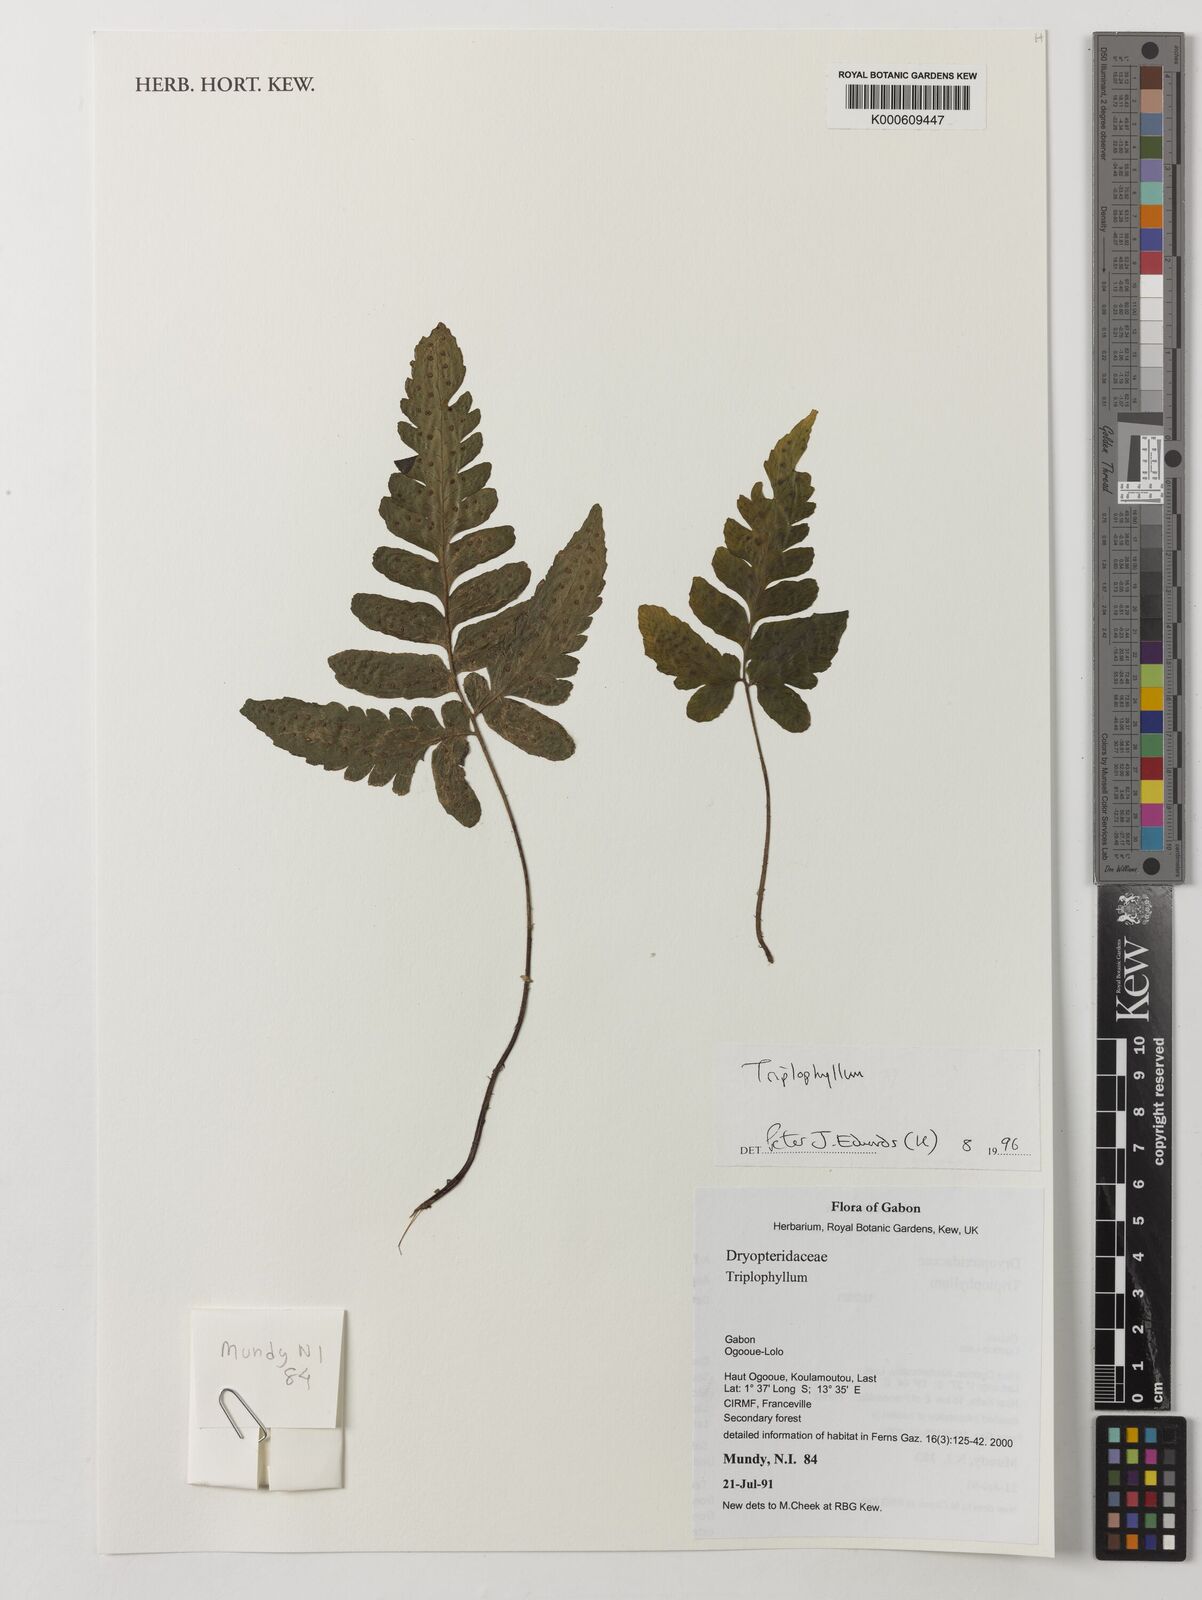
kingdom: Plantae
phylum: Tracheophyta
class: Polypodiopsida
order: Polypodiales
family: Tectariaceae
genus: Triplophyllum
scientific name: Triplophyllum
